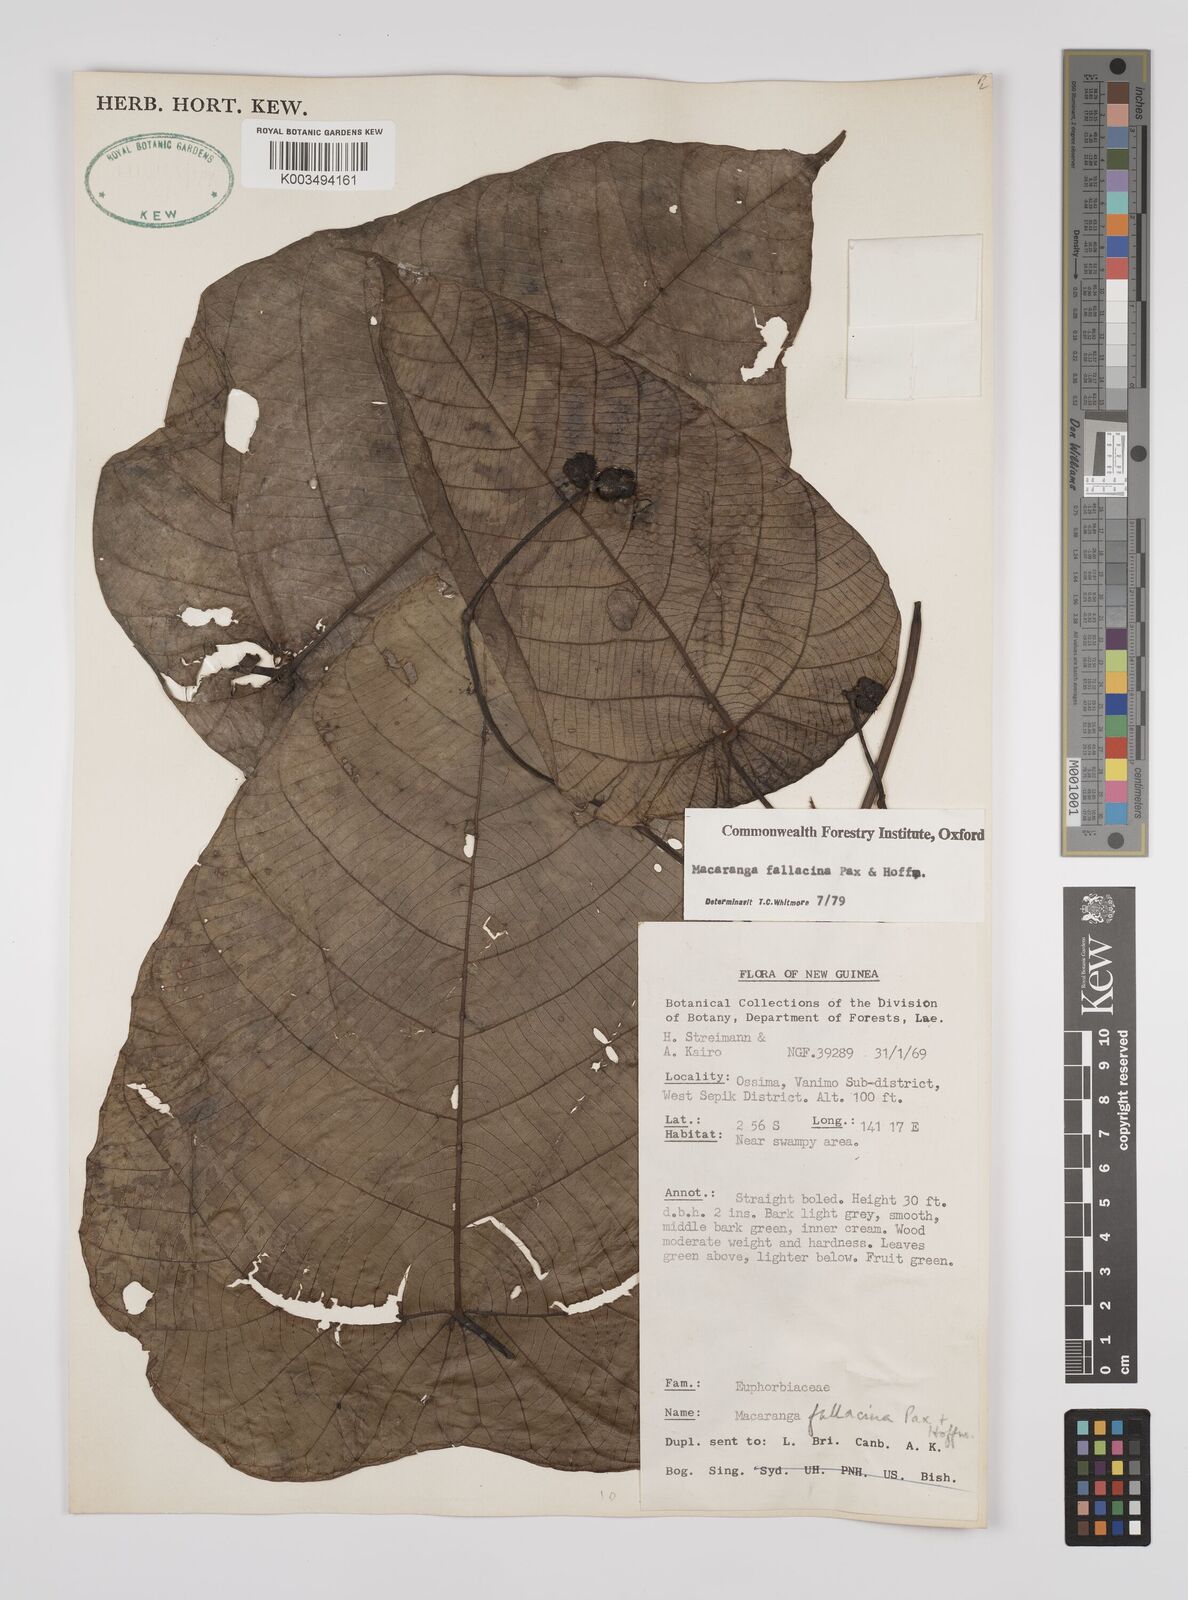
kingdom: Plantae
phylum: Tracheophyta
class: Magnoliopsida
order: Malpighiales
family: Euphorbiaceae
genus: Macaranga
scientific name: Macaranga fallacina
